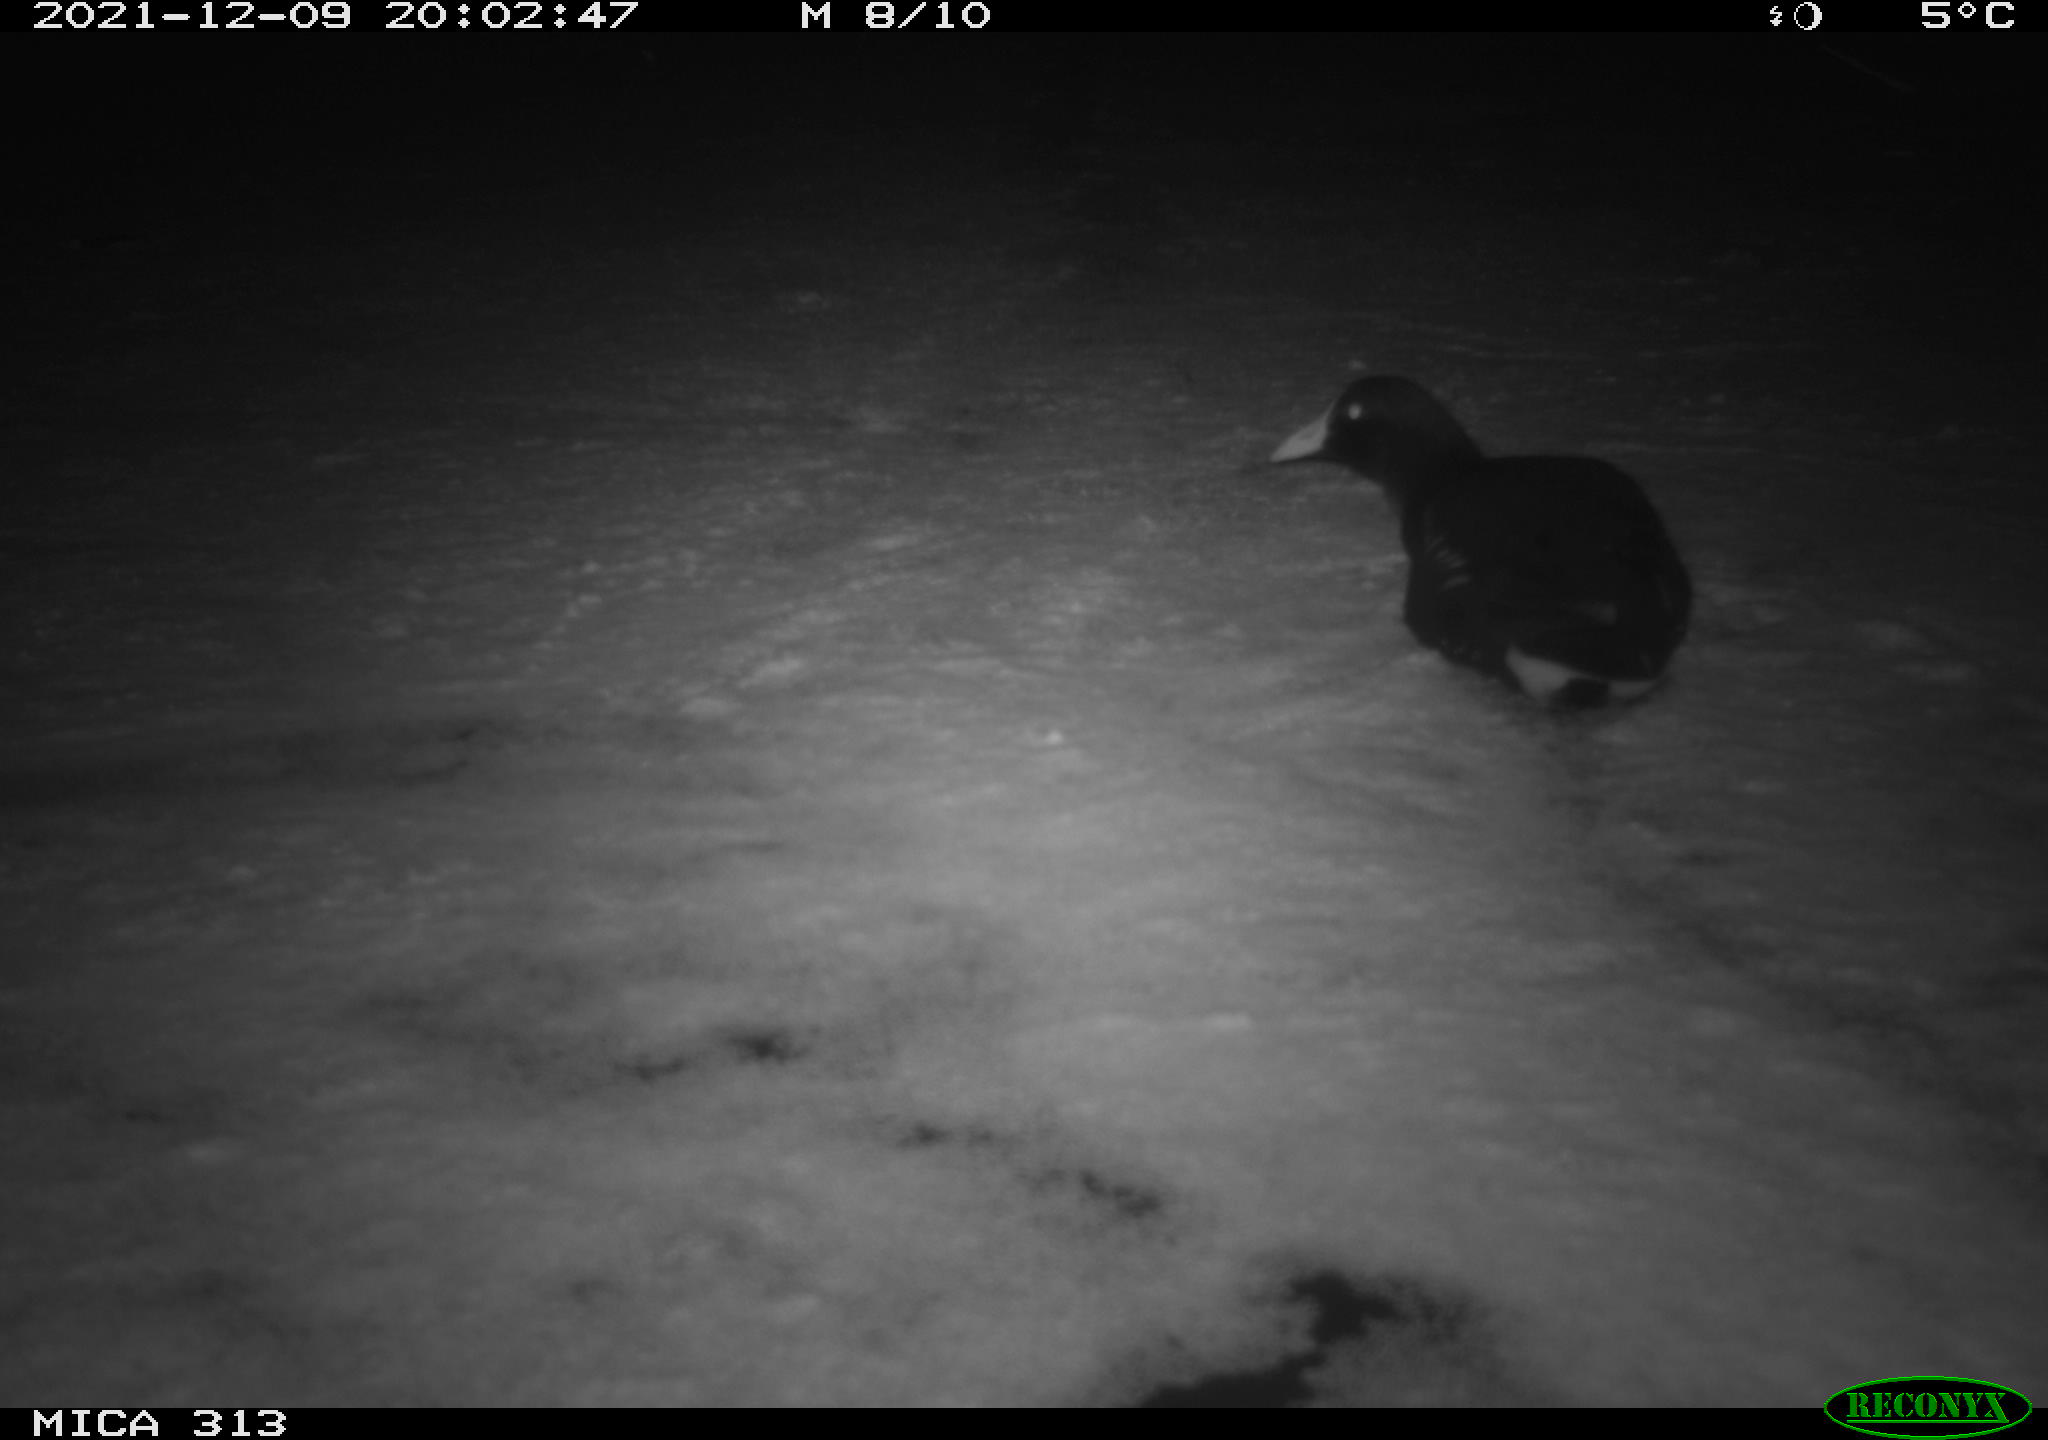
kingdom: Animalia
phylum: Chordata
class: Aves
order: Gruiformes
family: Rallidae
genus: Fulica
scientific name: Fulica atra
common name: Eurasian coot
